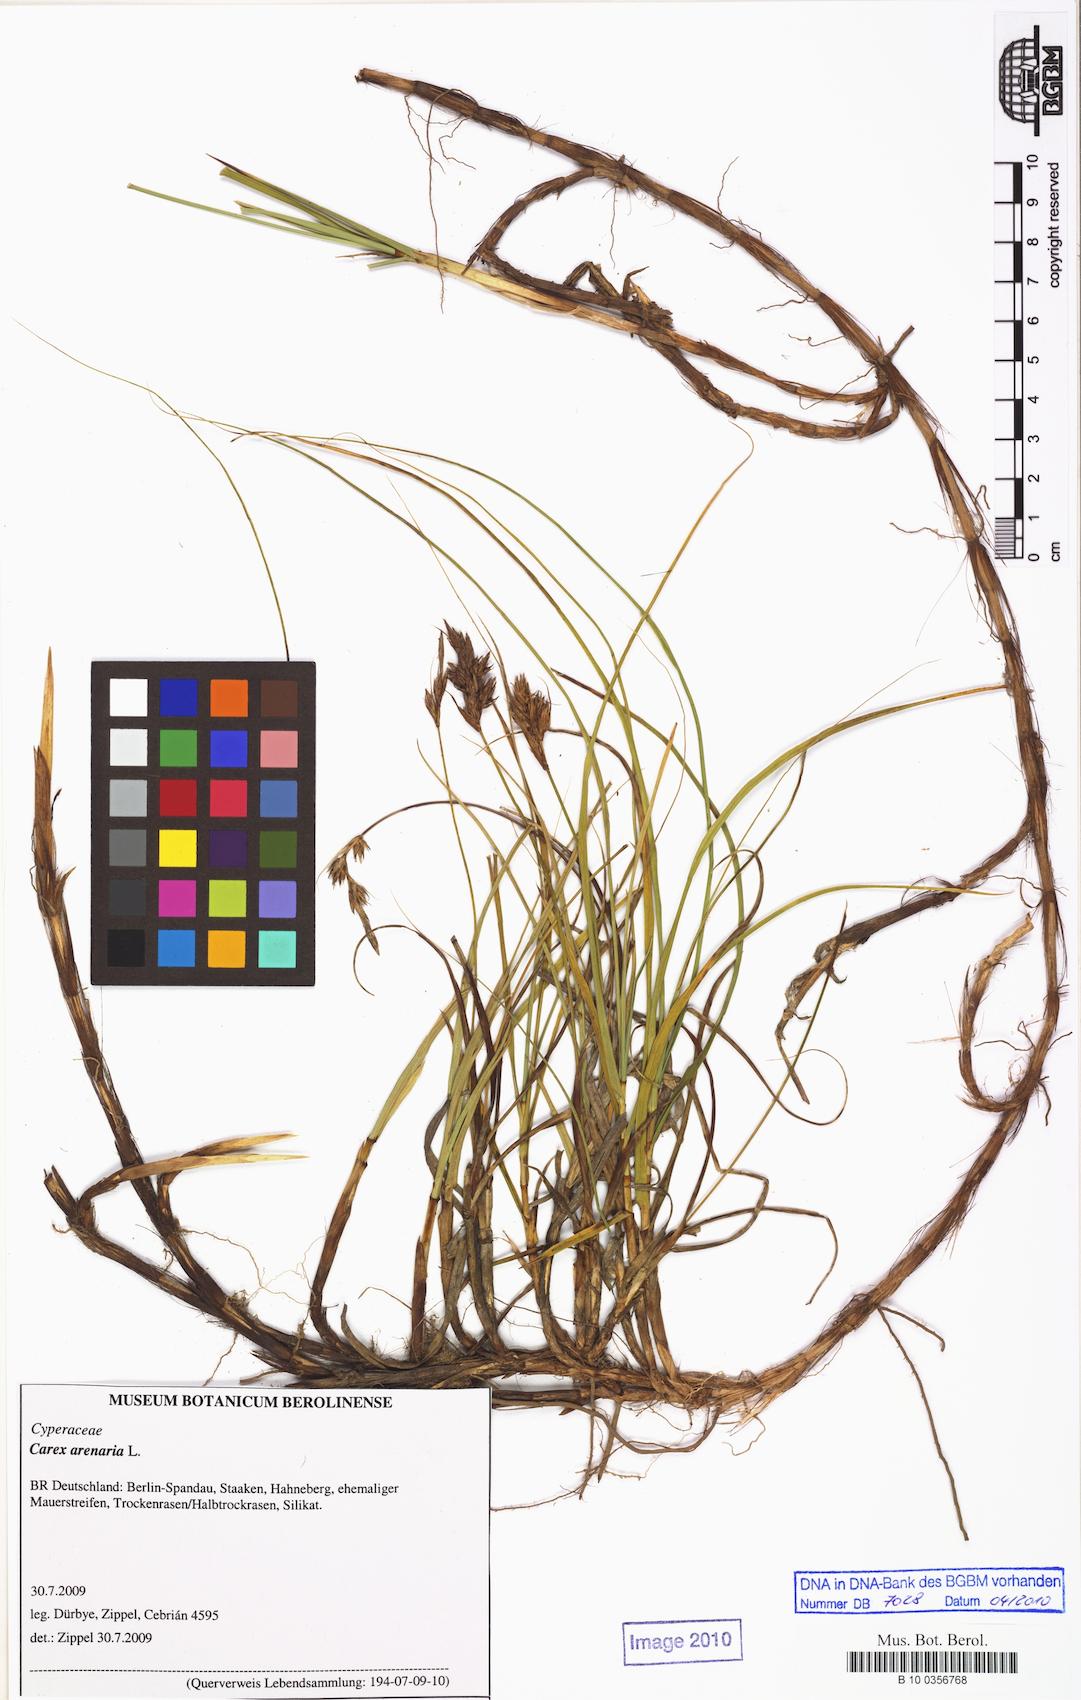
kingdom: Plantae
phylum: Tracheophyta
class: Liliopsida
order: Poales
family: Cyperaceae
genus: Carex
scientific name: Carex arenaria
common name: Sand sedge
